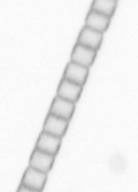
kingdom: Chromista
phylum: Ochrophyta
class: Bacillariophyceae
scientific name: Bacillariophyceae
